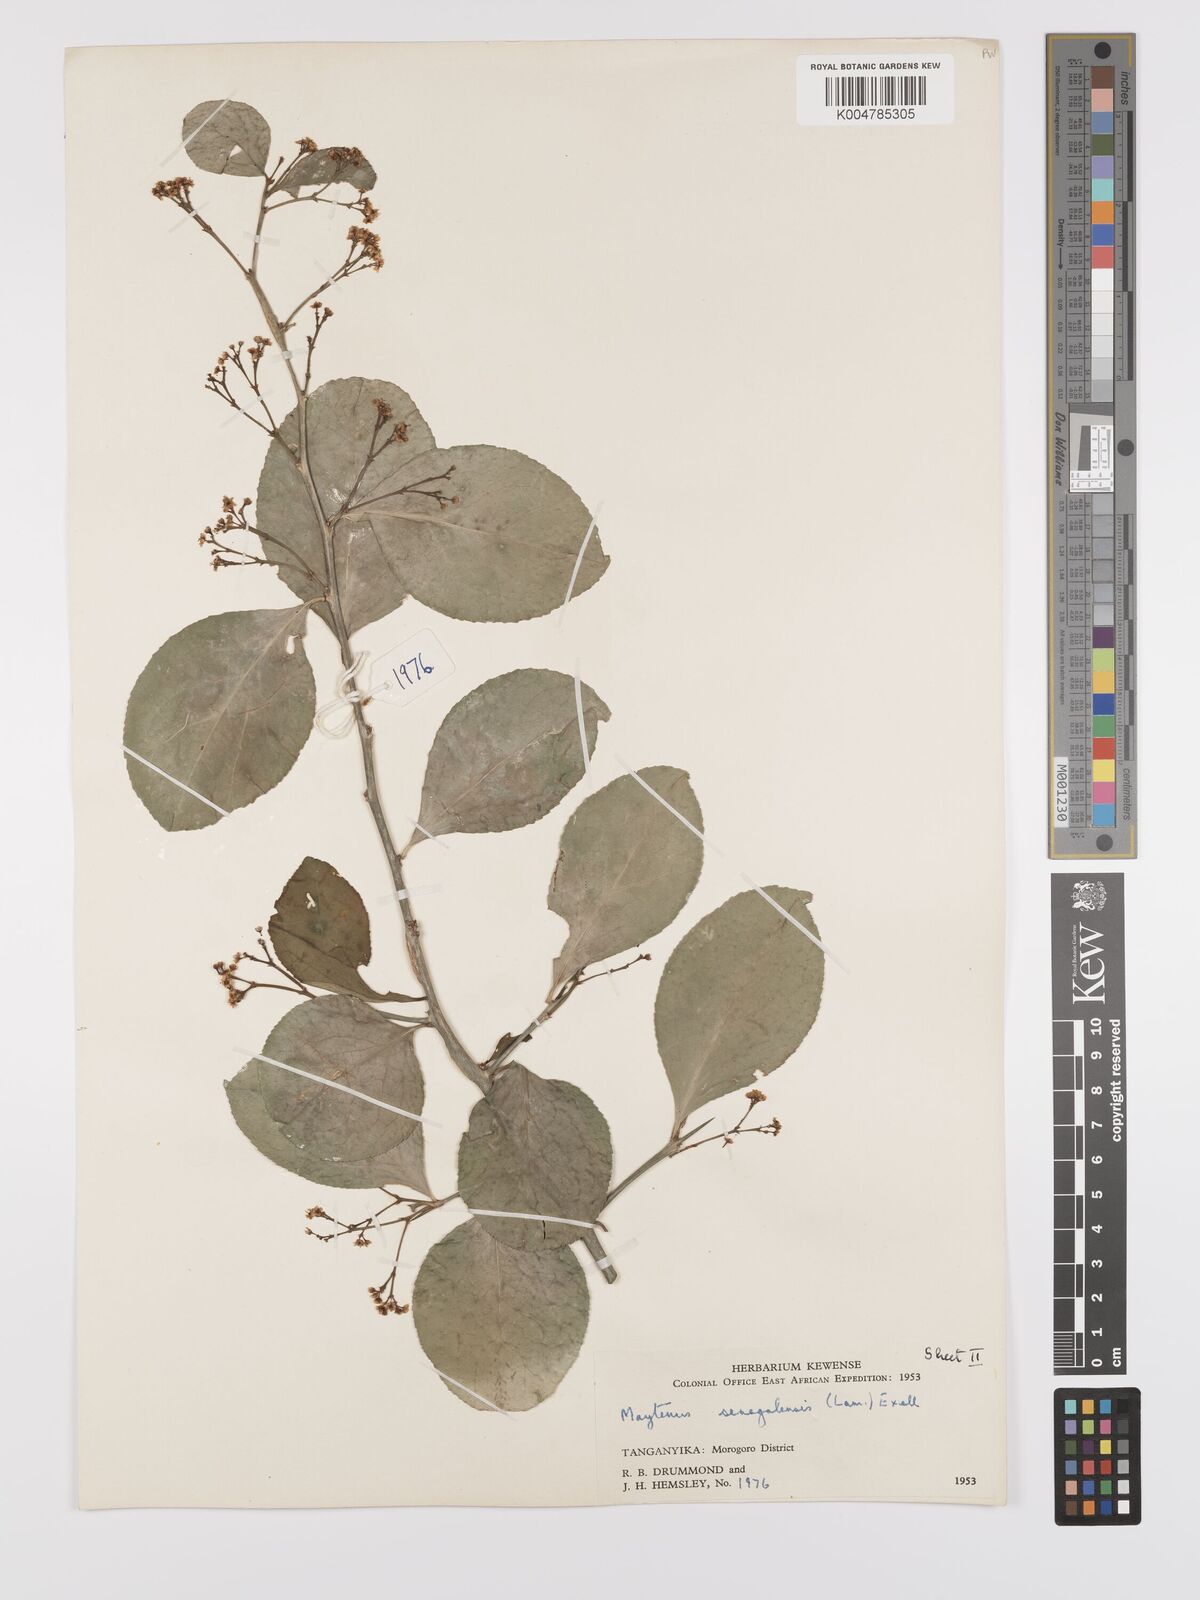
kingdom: Plantae
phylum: Tracheophyta
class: Magnoliopsida
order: Celastrales
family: Celastraceae
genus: Gymnosporia
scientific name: Gymnosporia nguruensis
